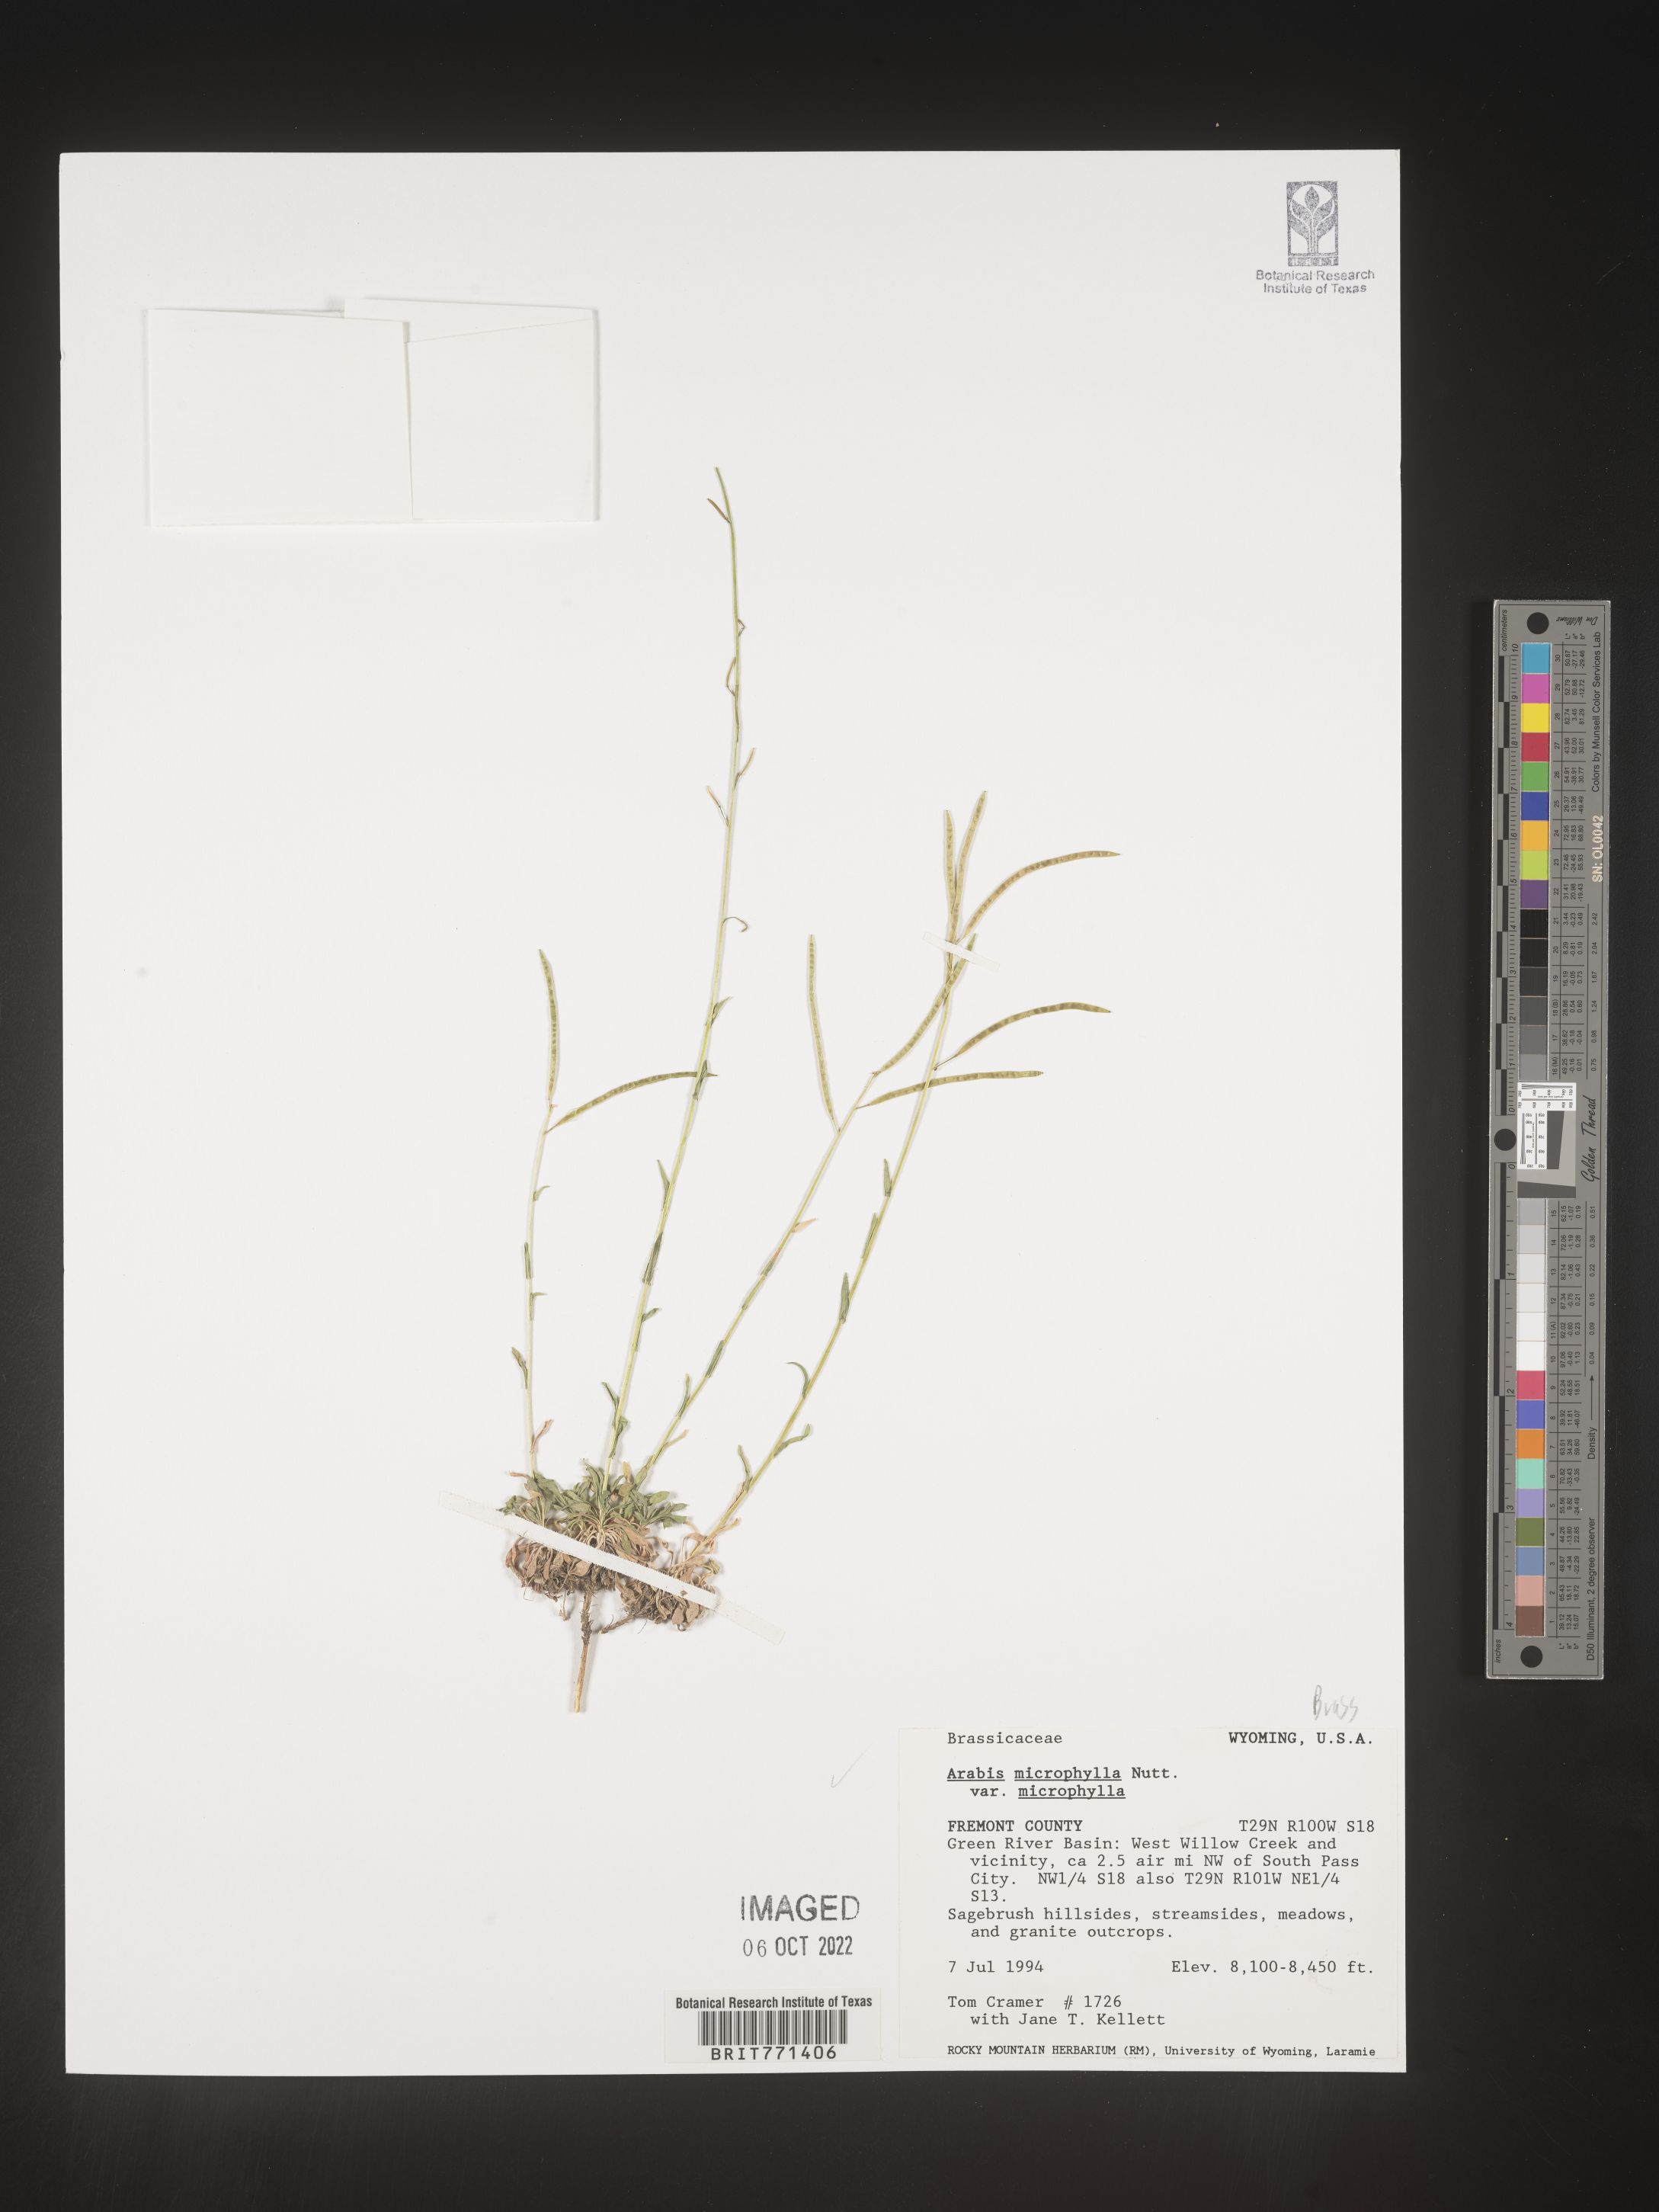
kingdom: Plantae
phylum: Tracheophyta
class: Magnoliopsida
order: Brassicales
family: Brassicaceae
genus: Arabis
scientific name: Arabis
